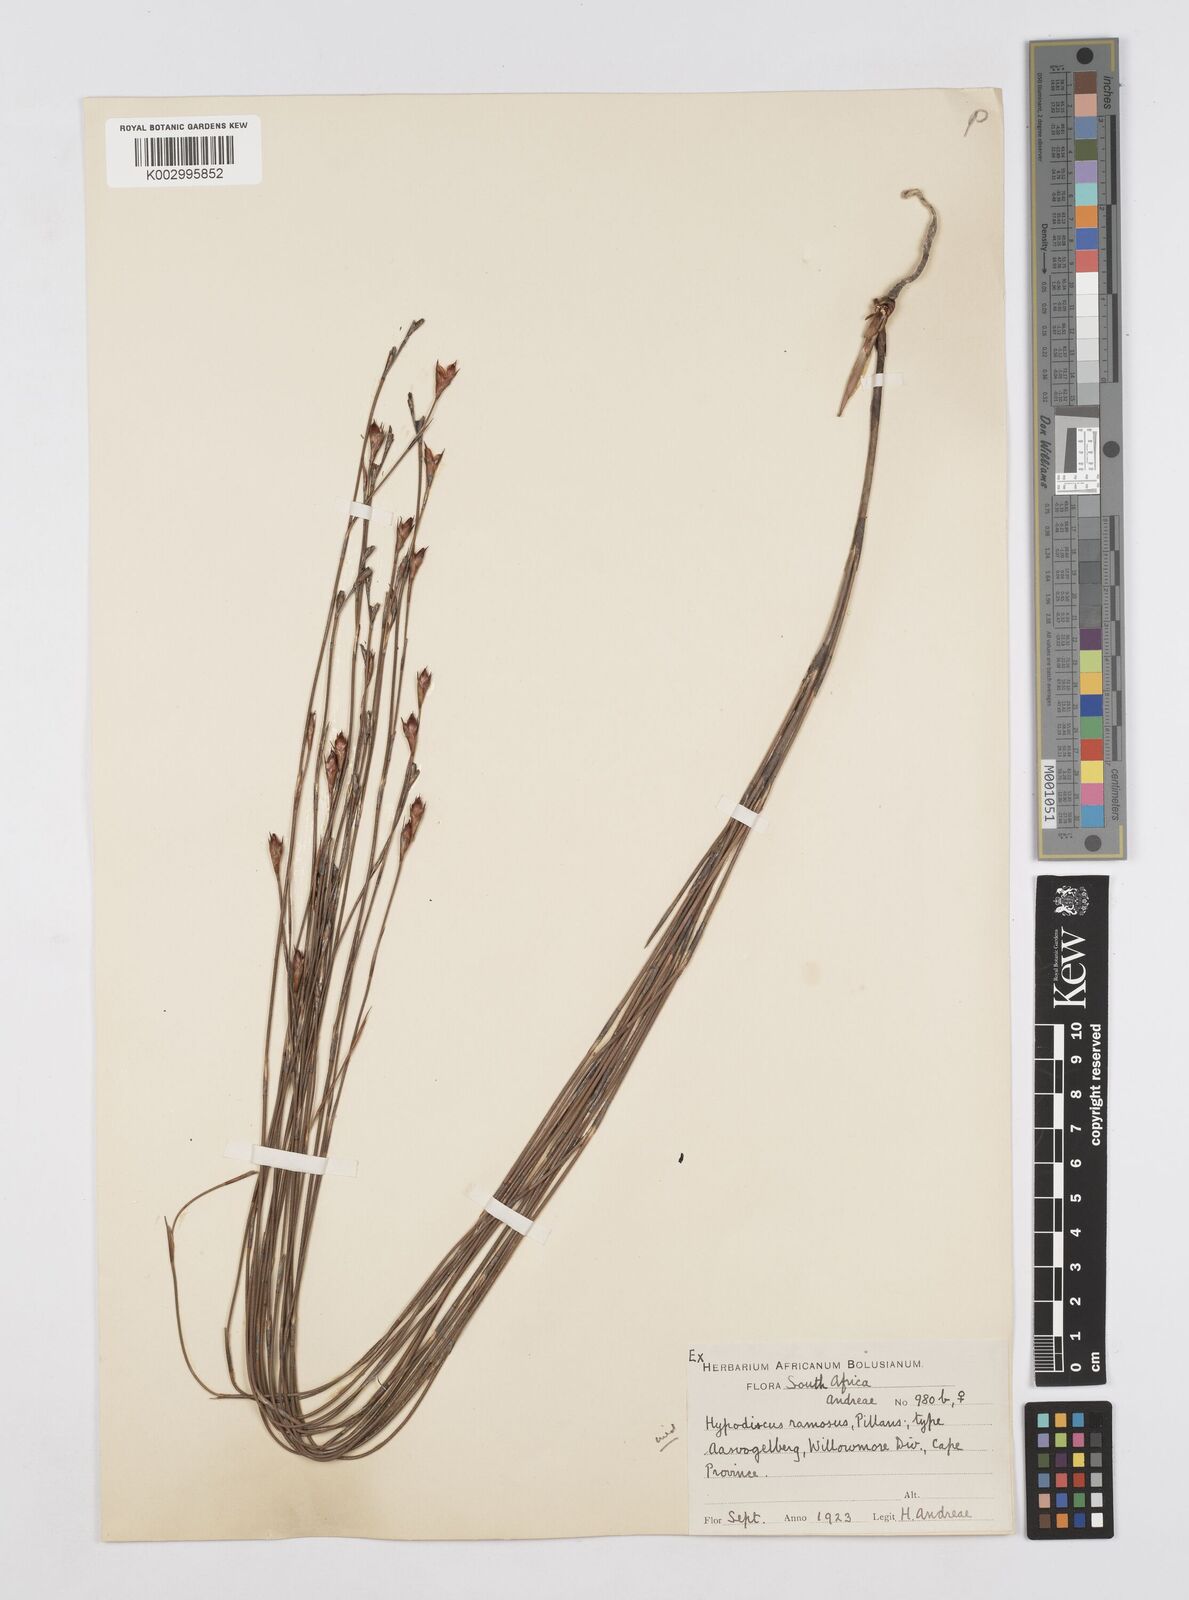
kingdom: Plantae
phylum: Tracheophyta
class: Liliopsida
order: Poales
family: Restionaceae
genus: Mastersiella
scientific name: Mastersiella purpurea
